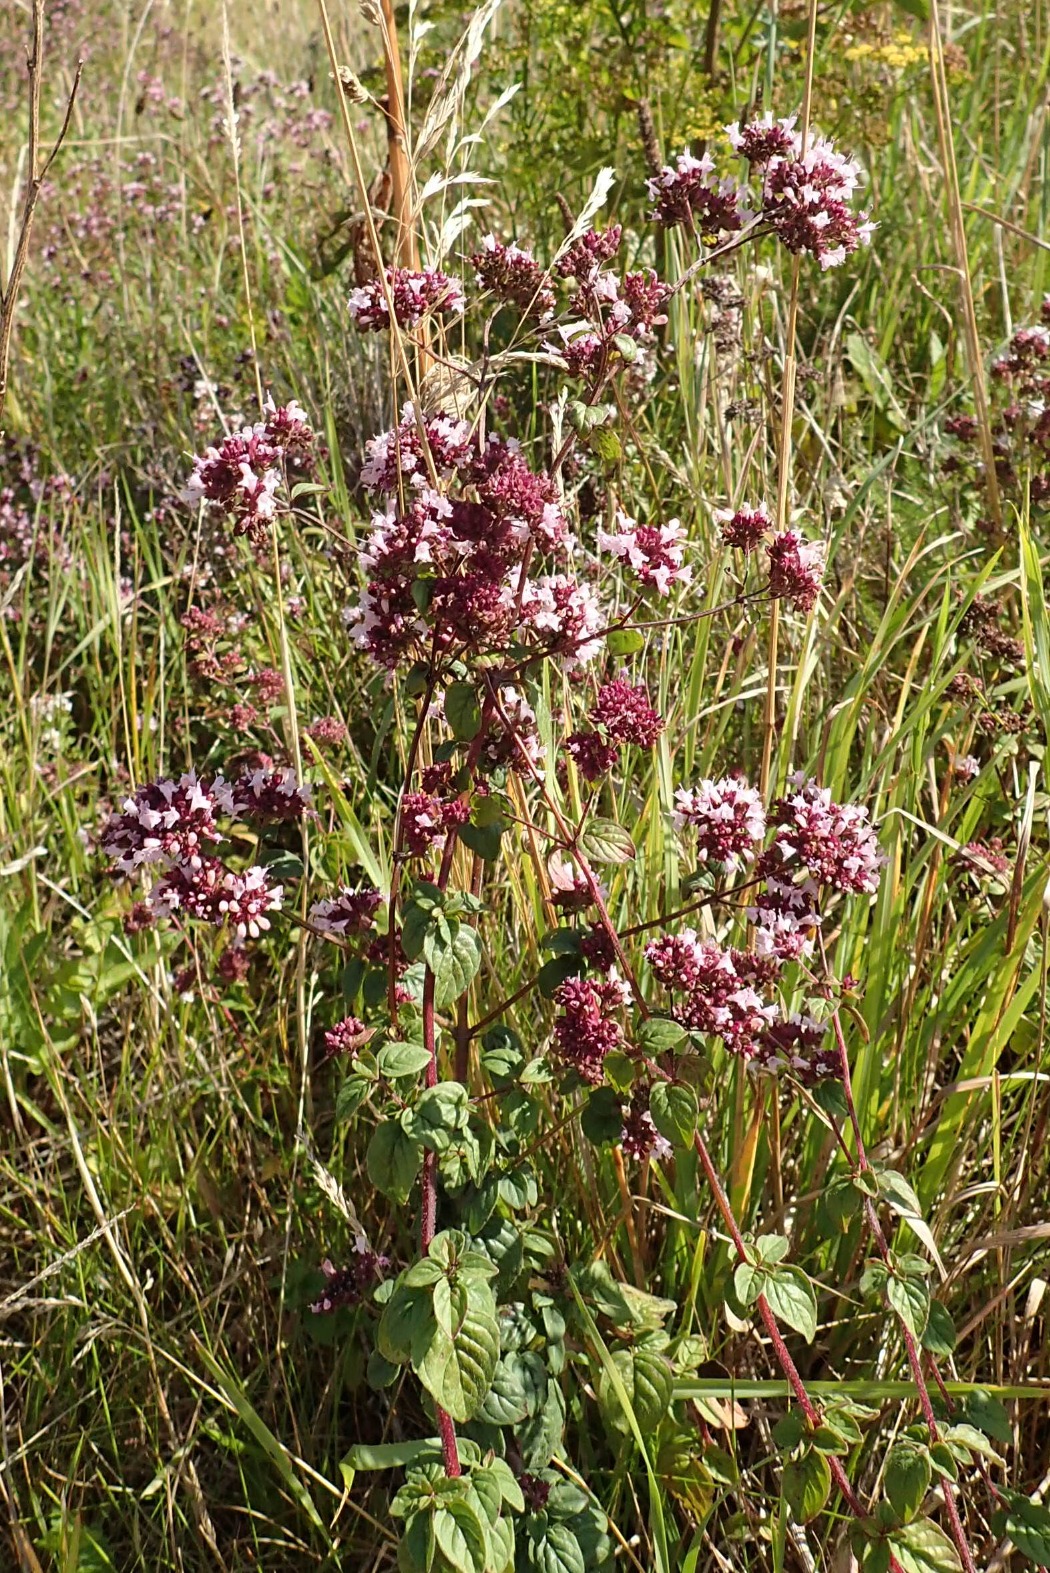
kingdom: Plantae
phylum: Tracheophyta
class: Magnoliopsida
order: Lamiales
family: Lamiaceae
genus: Origanum
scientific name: Origanum vulgare
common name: Merian
